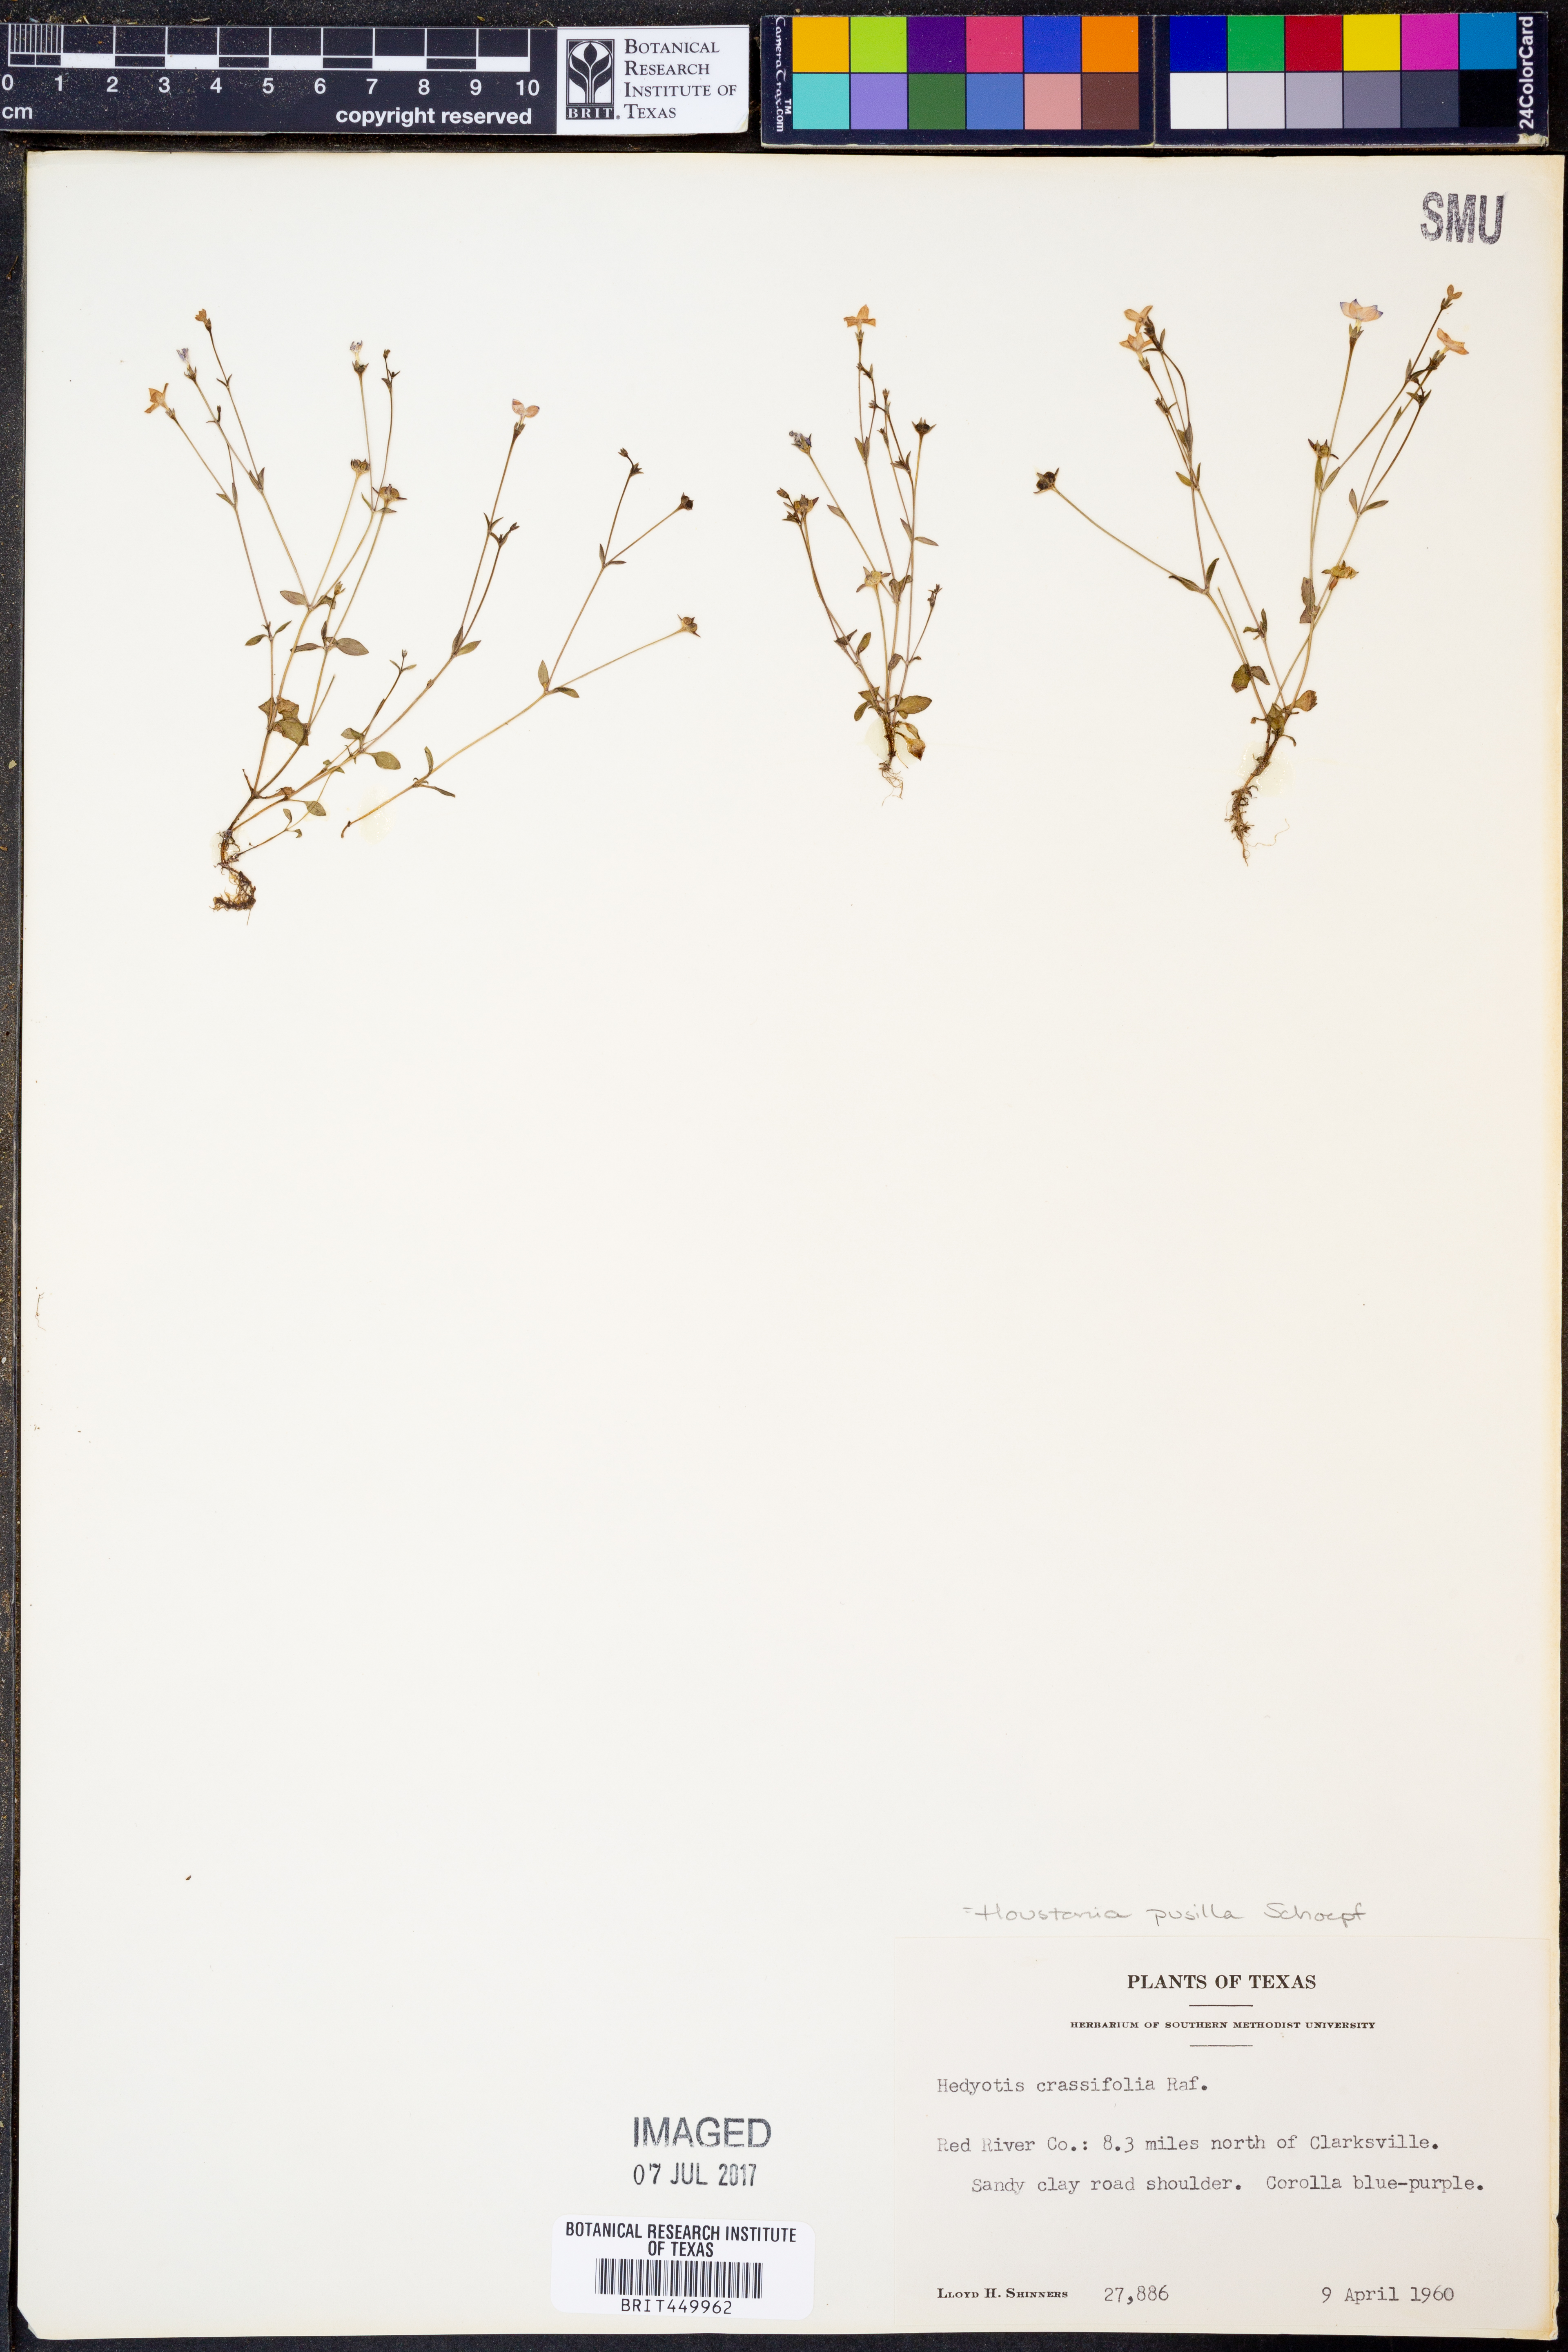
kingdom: Plantae
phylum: Tracheophyta
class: Magnoliopsida
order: Gentianales
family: Rubiaceae
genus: Houstonia
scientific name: Houstonia pusilla
